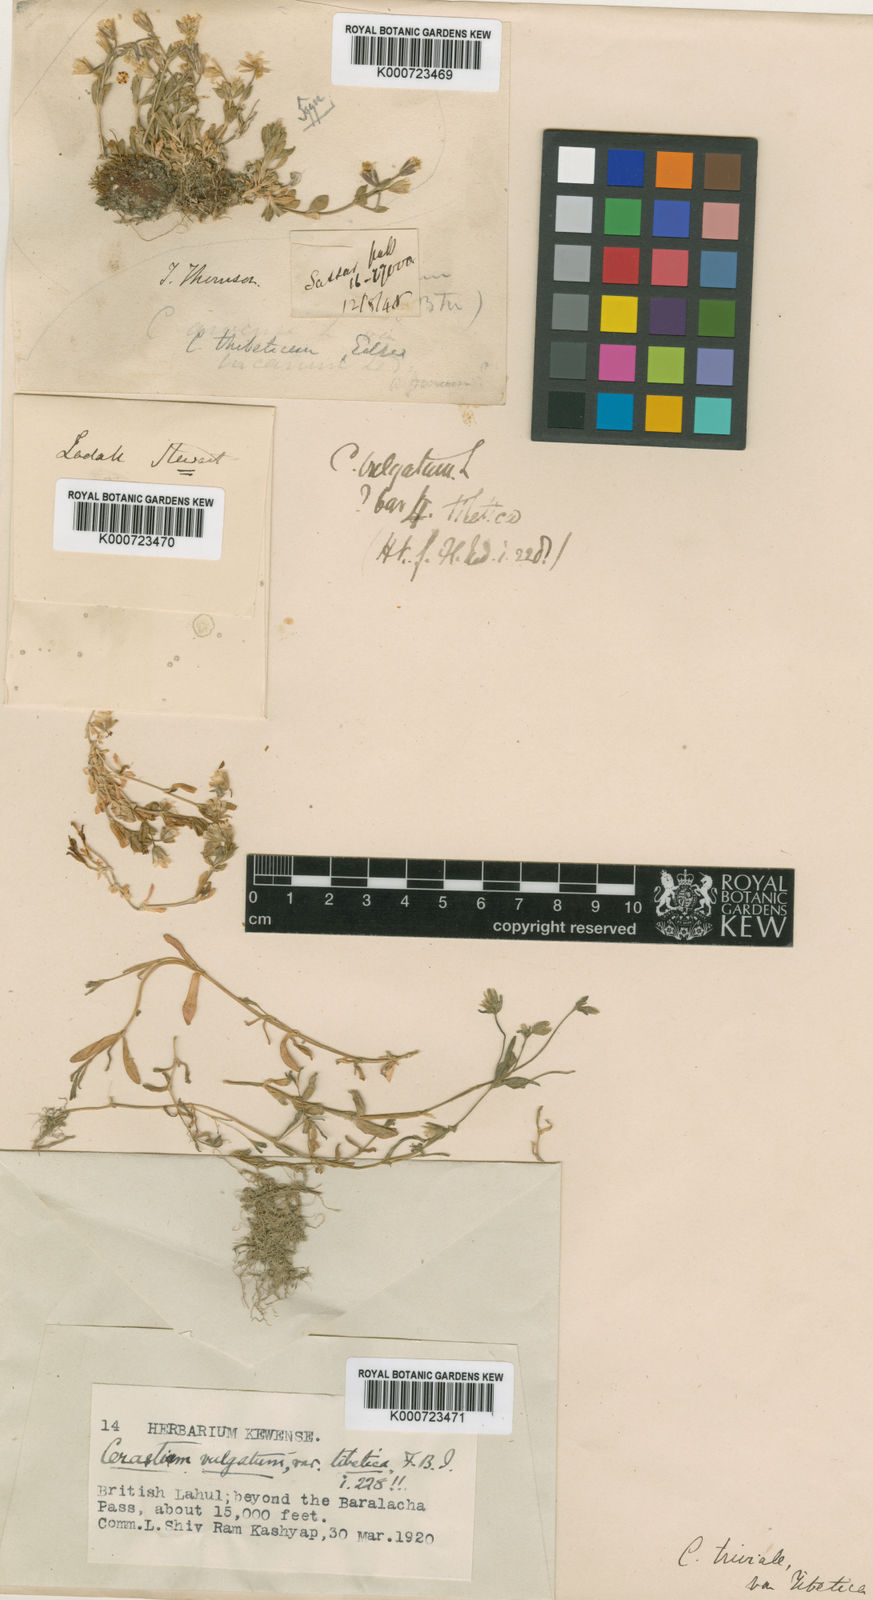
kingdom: Plantae
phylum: Tracheophyta
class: Magnoliopsida
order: Caryophyllales
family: Caryophyllaceae
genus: Cerastium
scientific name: Cerastium
